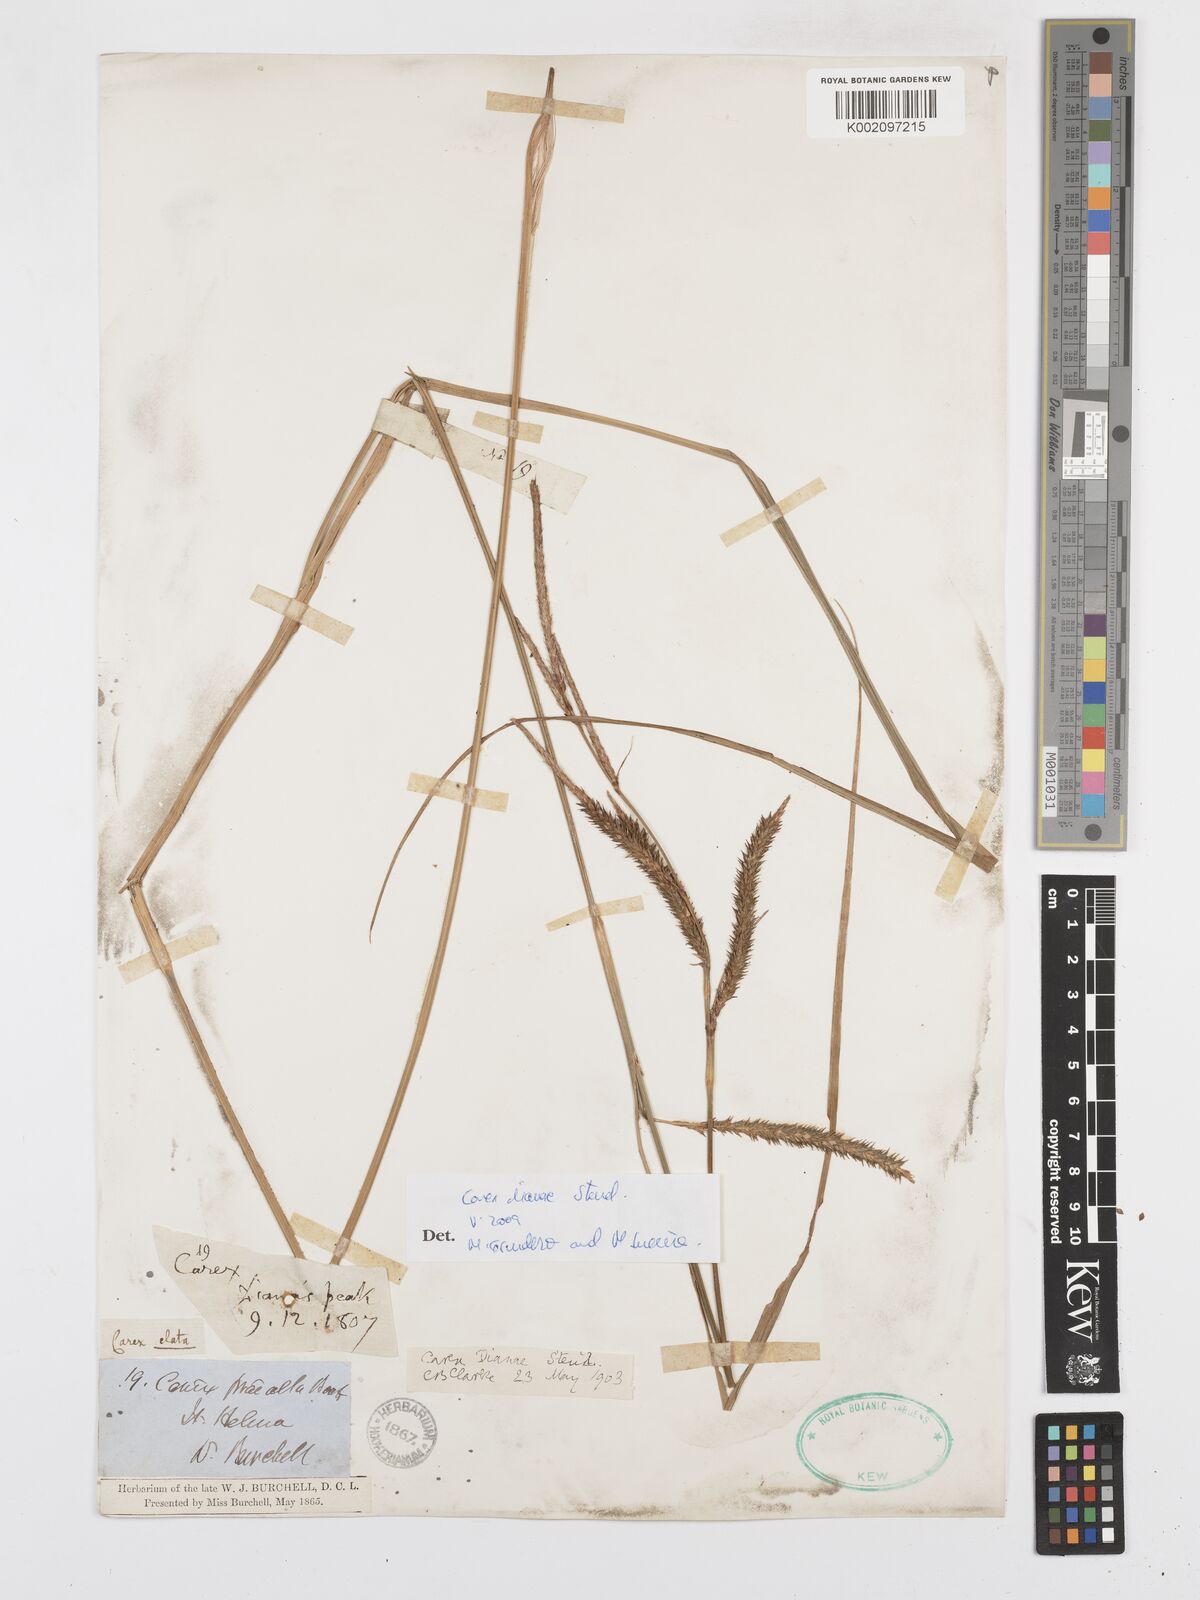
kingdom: Plantae
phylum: Tracheophyta
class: Liliopsida
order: Poales
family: Cyperaceae
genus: Carex
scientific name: Carex dianae
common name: Diana's peak grass
